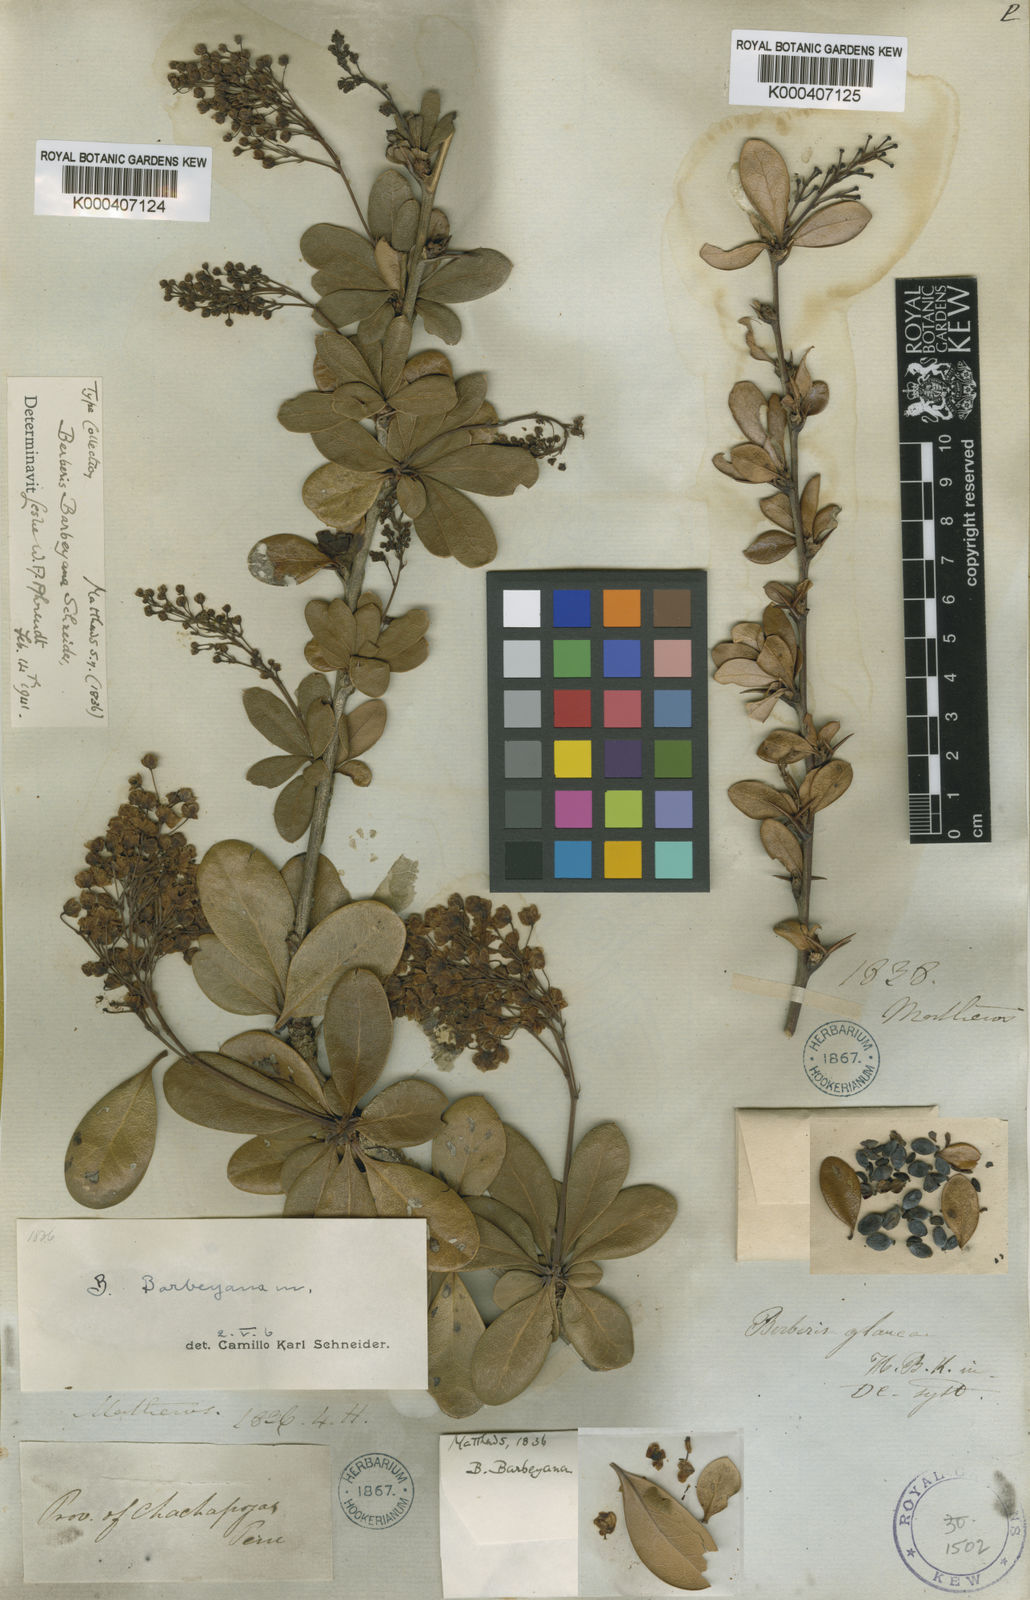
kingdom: Plantae
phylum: Tracheophyta
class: Magnoliopsida
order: Ranunculales
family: Berberidaceae
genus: Berberis
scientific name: Berberis barbeyana
